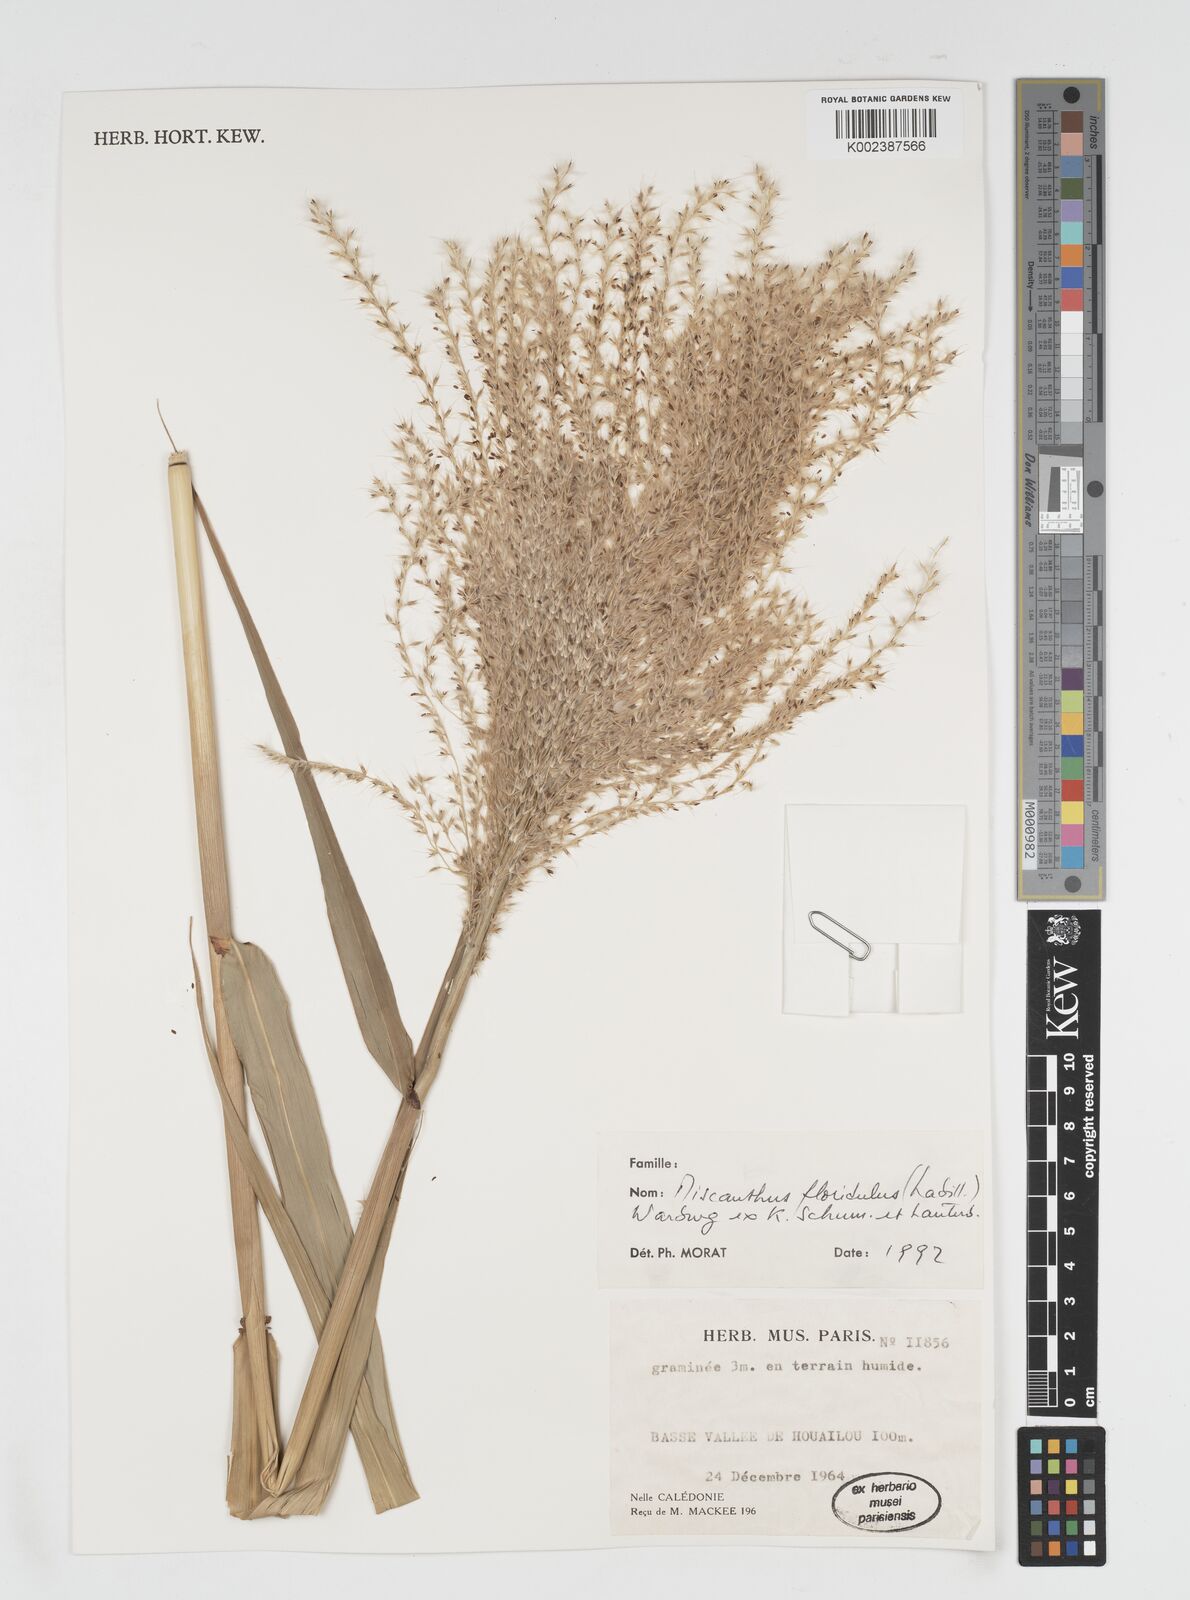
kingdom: Plantae
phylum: Tracheophyta
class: Liliopsida
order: Poales
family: Poaceae
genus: Miscanthus
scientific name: Miscanthus floridulus
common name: Pacific island silvergrass
